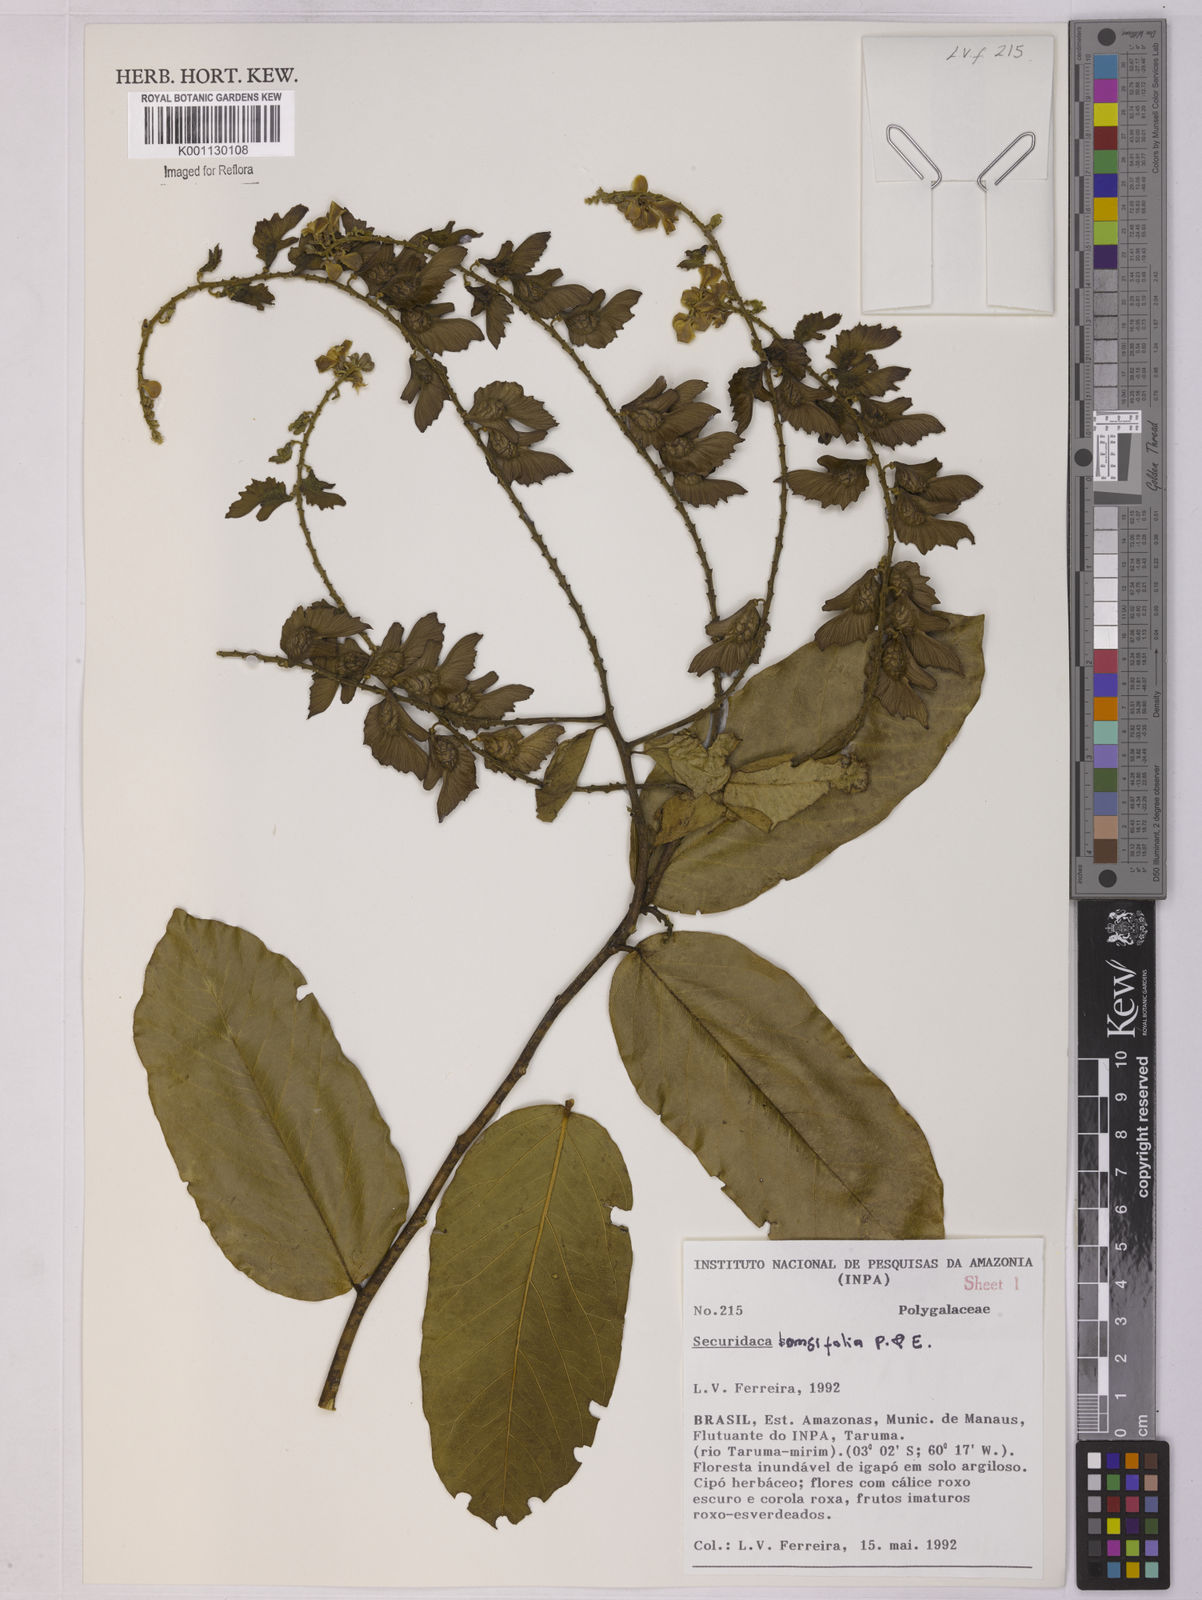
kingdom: Plantae
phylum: Tracheophyta
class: Magnoliopsida
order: Fabales
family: Polygalaceae
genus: Securidaca
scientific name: Securidaca longifolia
